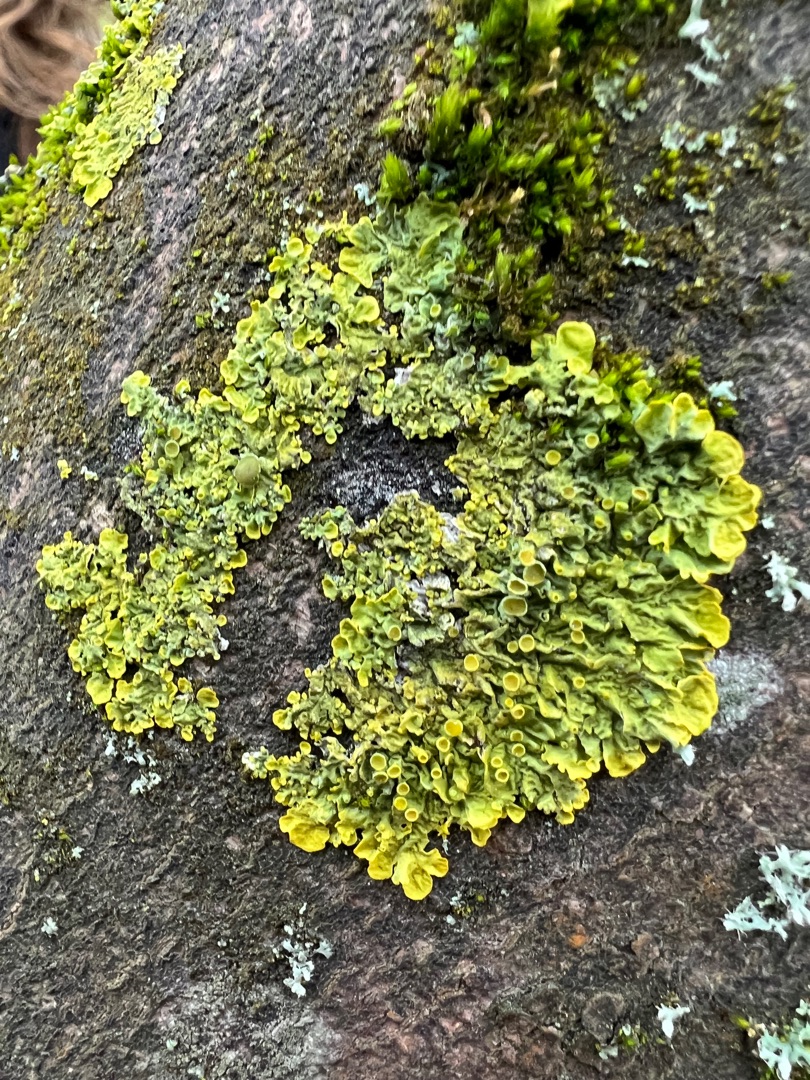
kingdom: Fungi
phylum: Ascomycota
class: Lecanoromycetes
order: Teloschistales
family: Teloschistaceae
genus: Xanthoria
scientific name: Xanthoria parietina
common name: Almindelig væggelav
